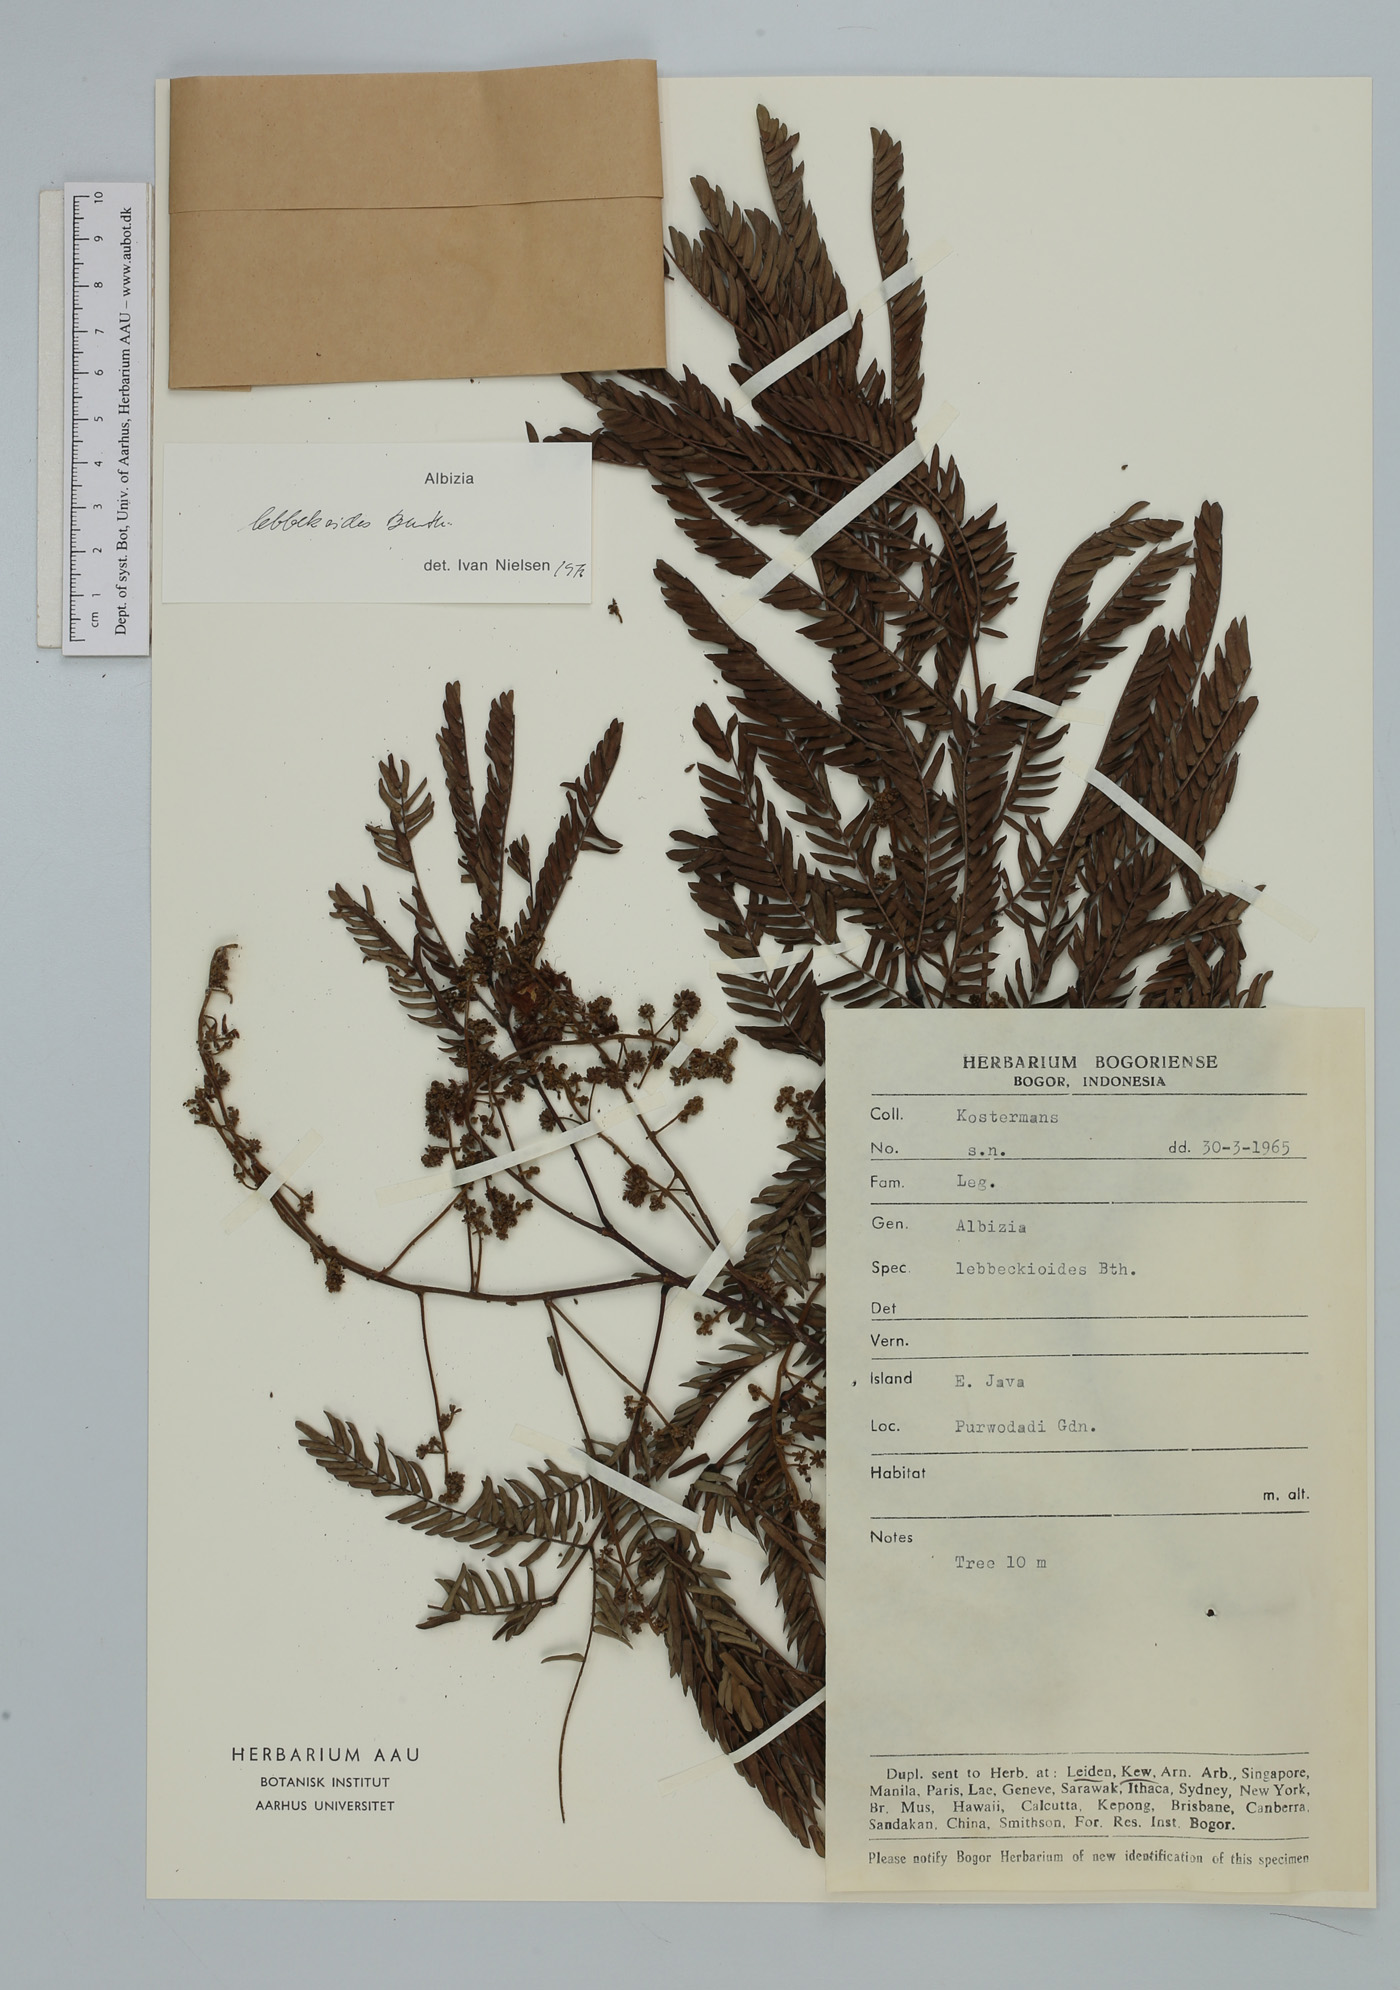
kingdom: Plantae
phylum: Tracheophyta
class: Magnoliopsida
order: Fabales
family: Fabaceae
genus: Albizia
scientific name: Albizia lebbekoides
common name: Indian albizia
